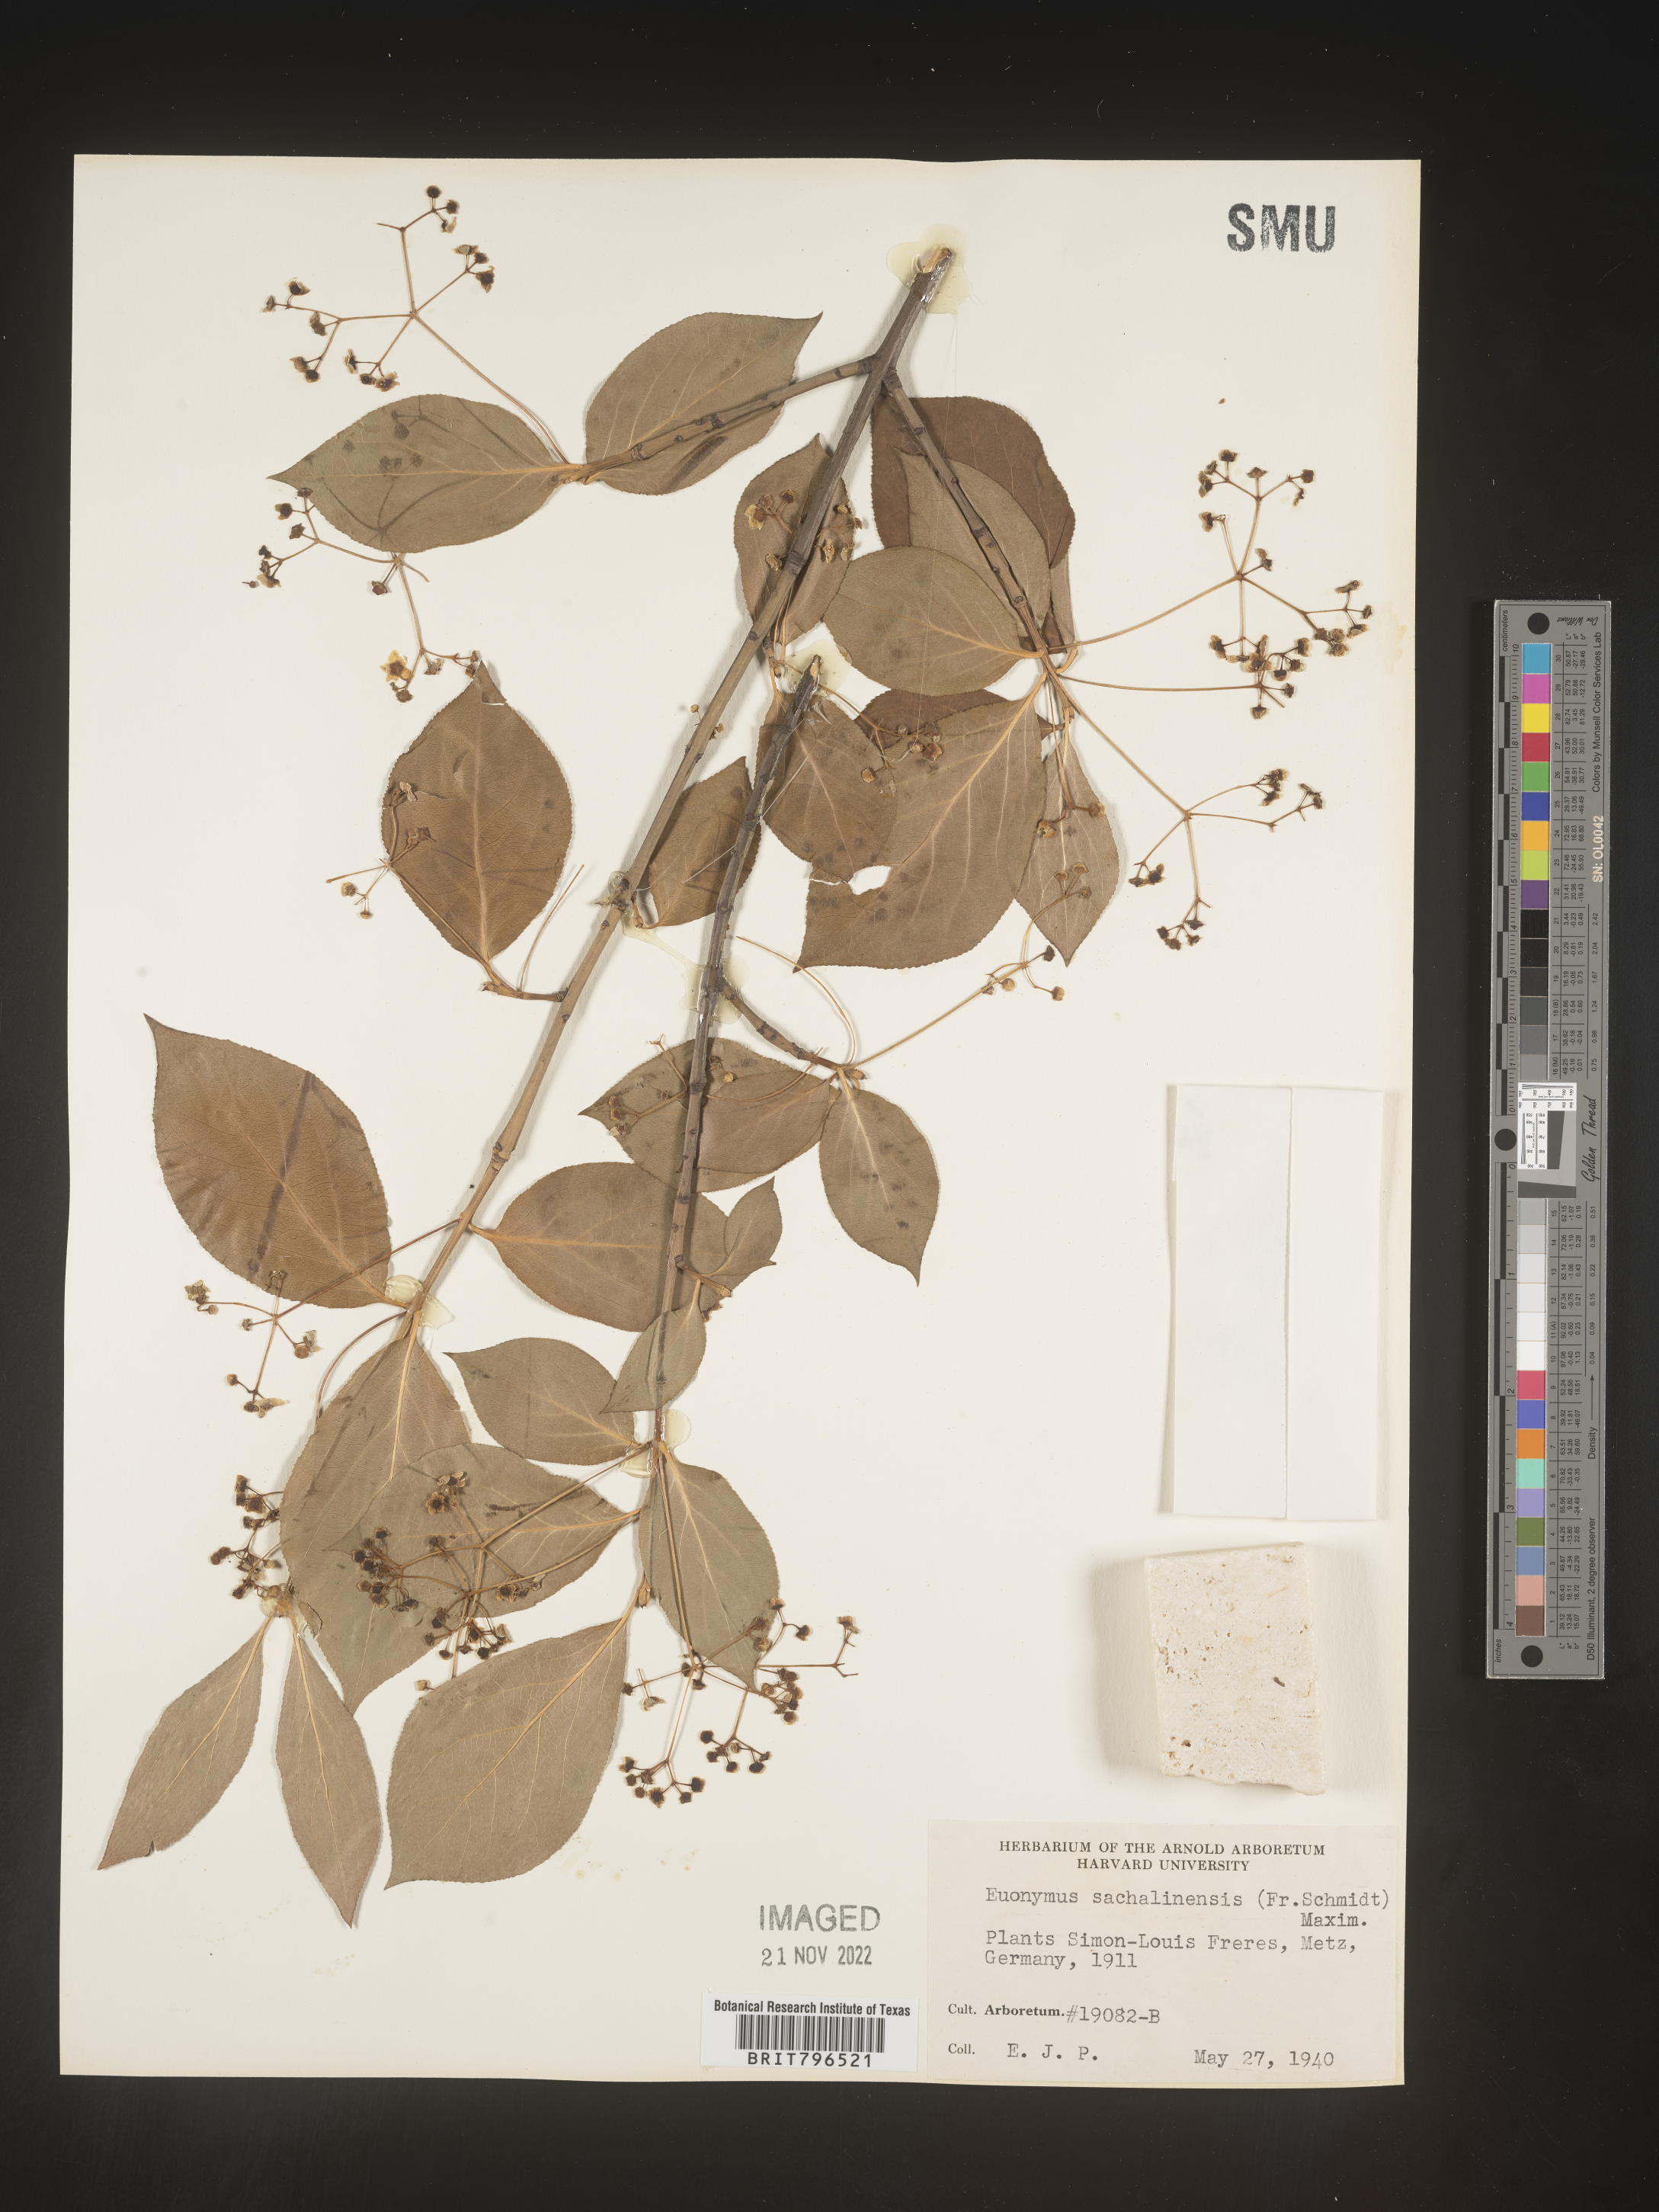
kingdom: Plantae
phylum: Tracheophyta
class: Magnoliopsida
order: Celastrales
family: Celastraceae
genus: Euonymus
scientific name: Euonymus
